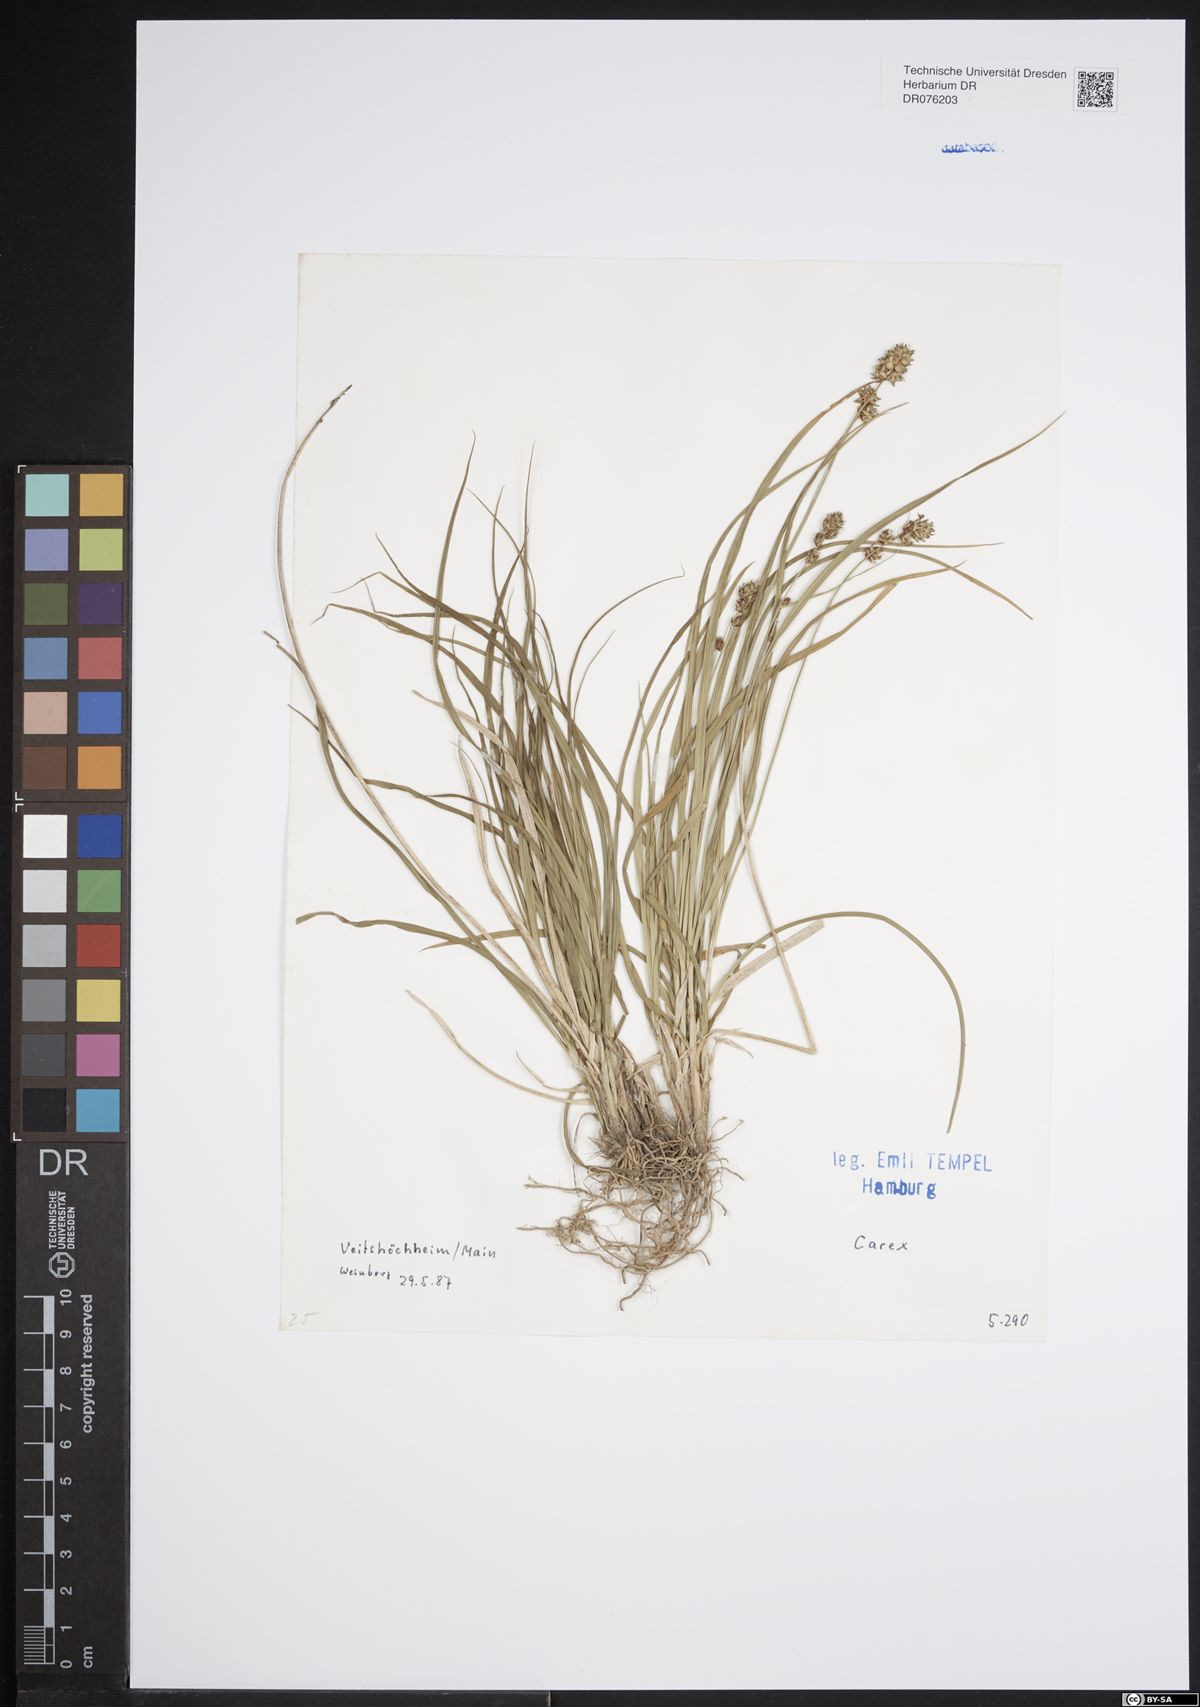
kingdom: Plantae
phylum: Tracheophyta
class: Liliopsida
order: Poales
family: Cyperaceae
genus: Carex
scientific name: Carex
